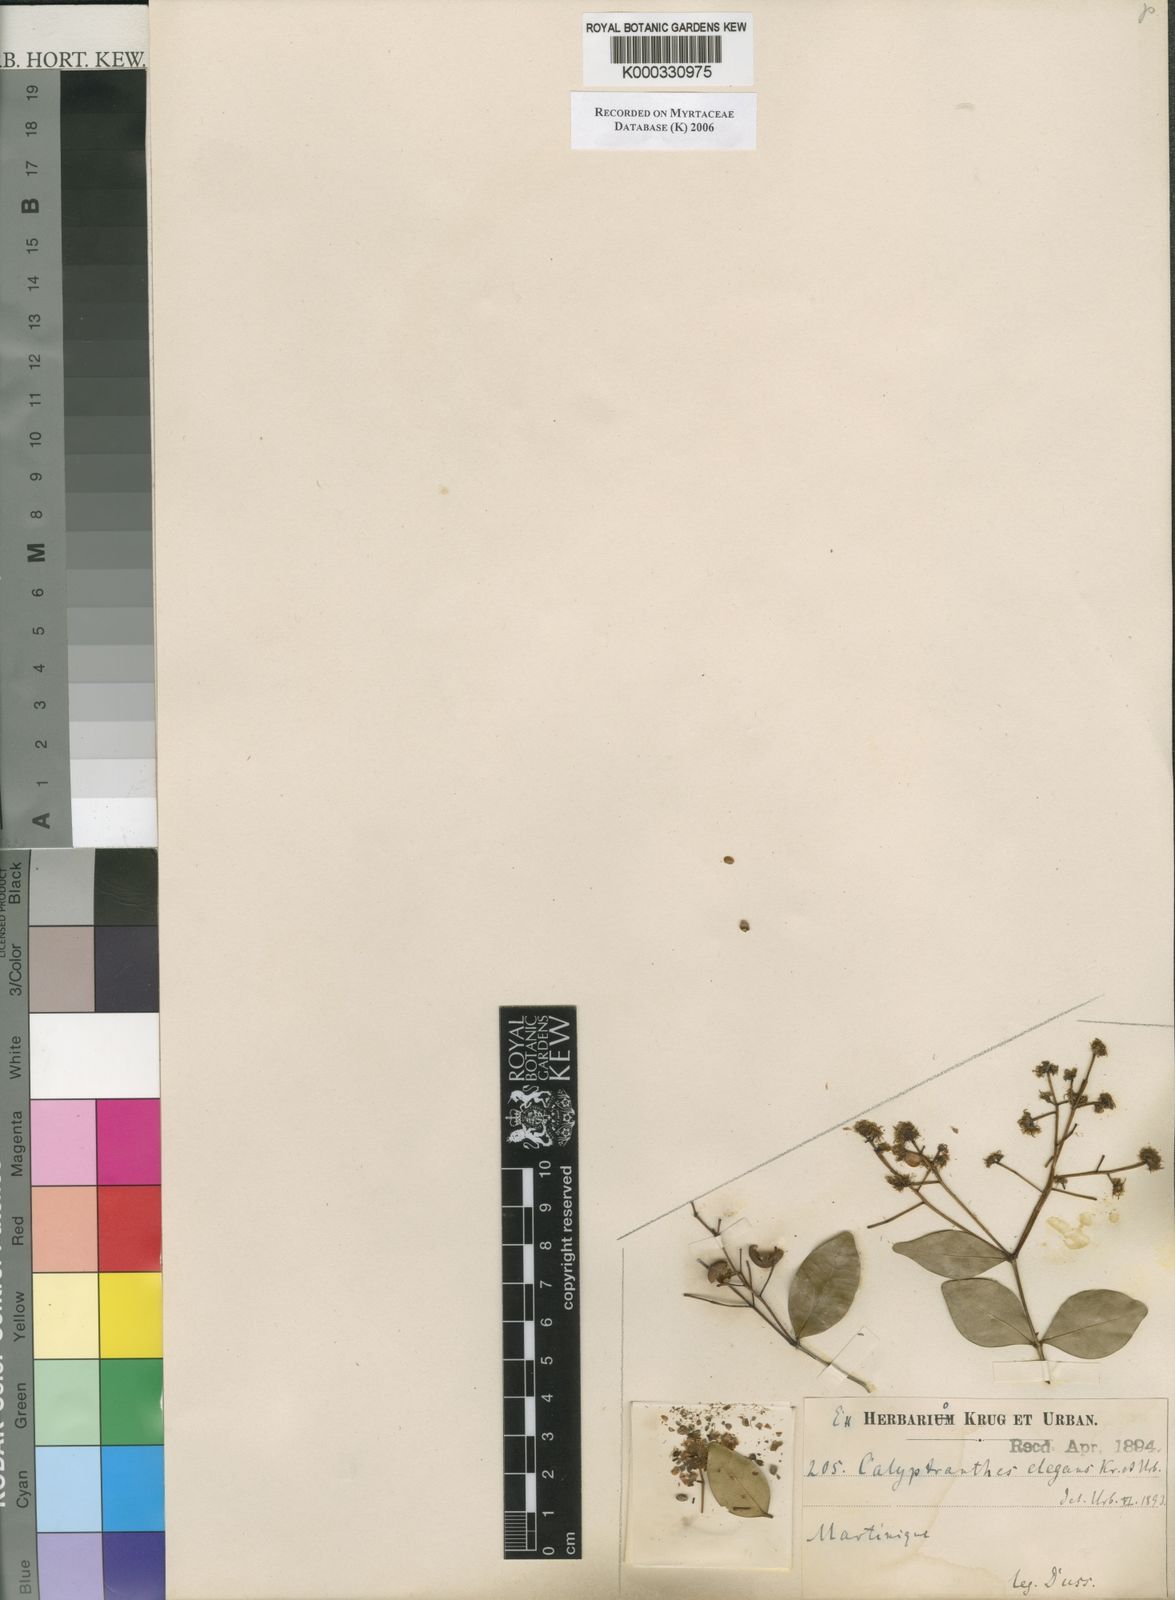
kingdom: Plantae
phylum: Tracheophyta
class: Magnoliopsida
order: Myrtales
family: Myrtaceae
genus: Myrcia
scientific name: Myrcia neoelegans
